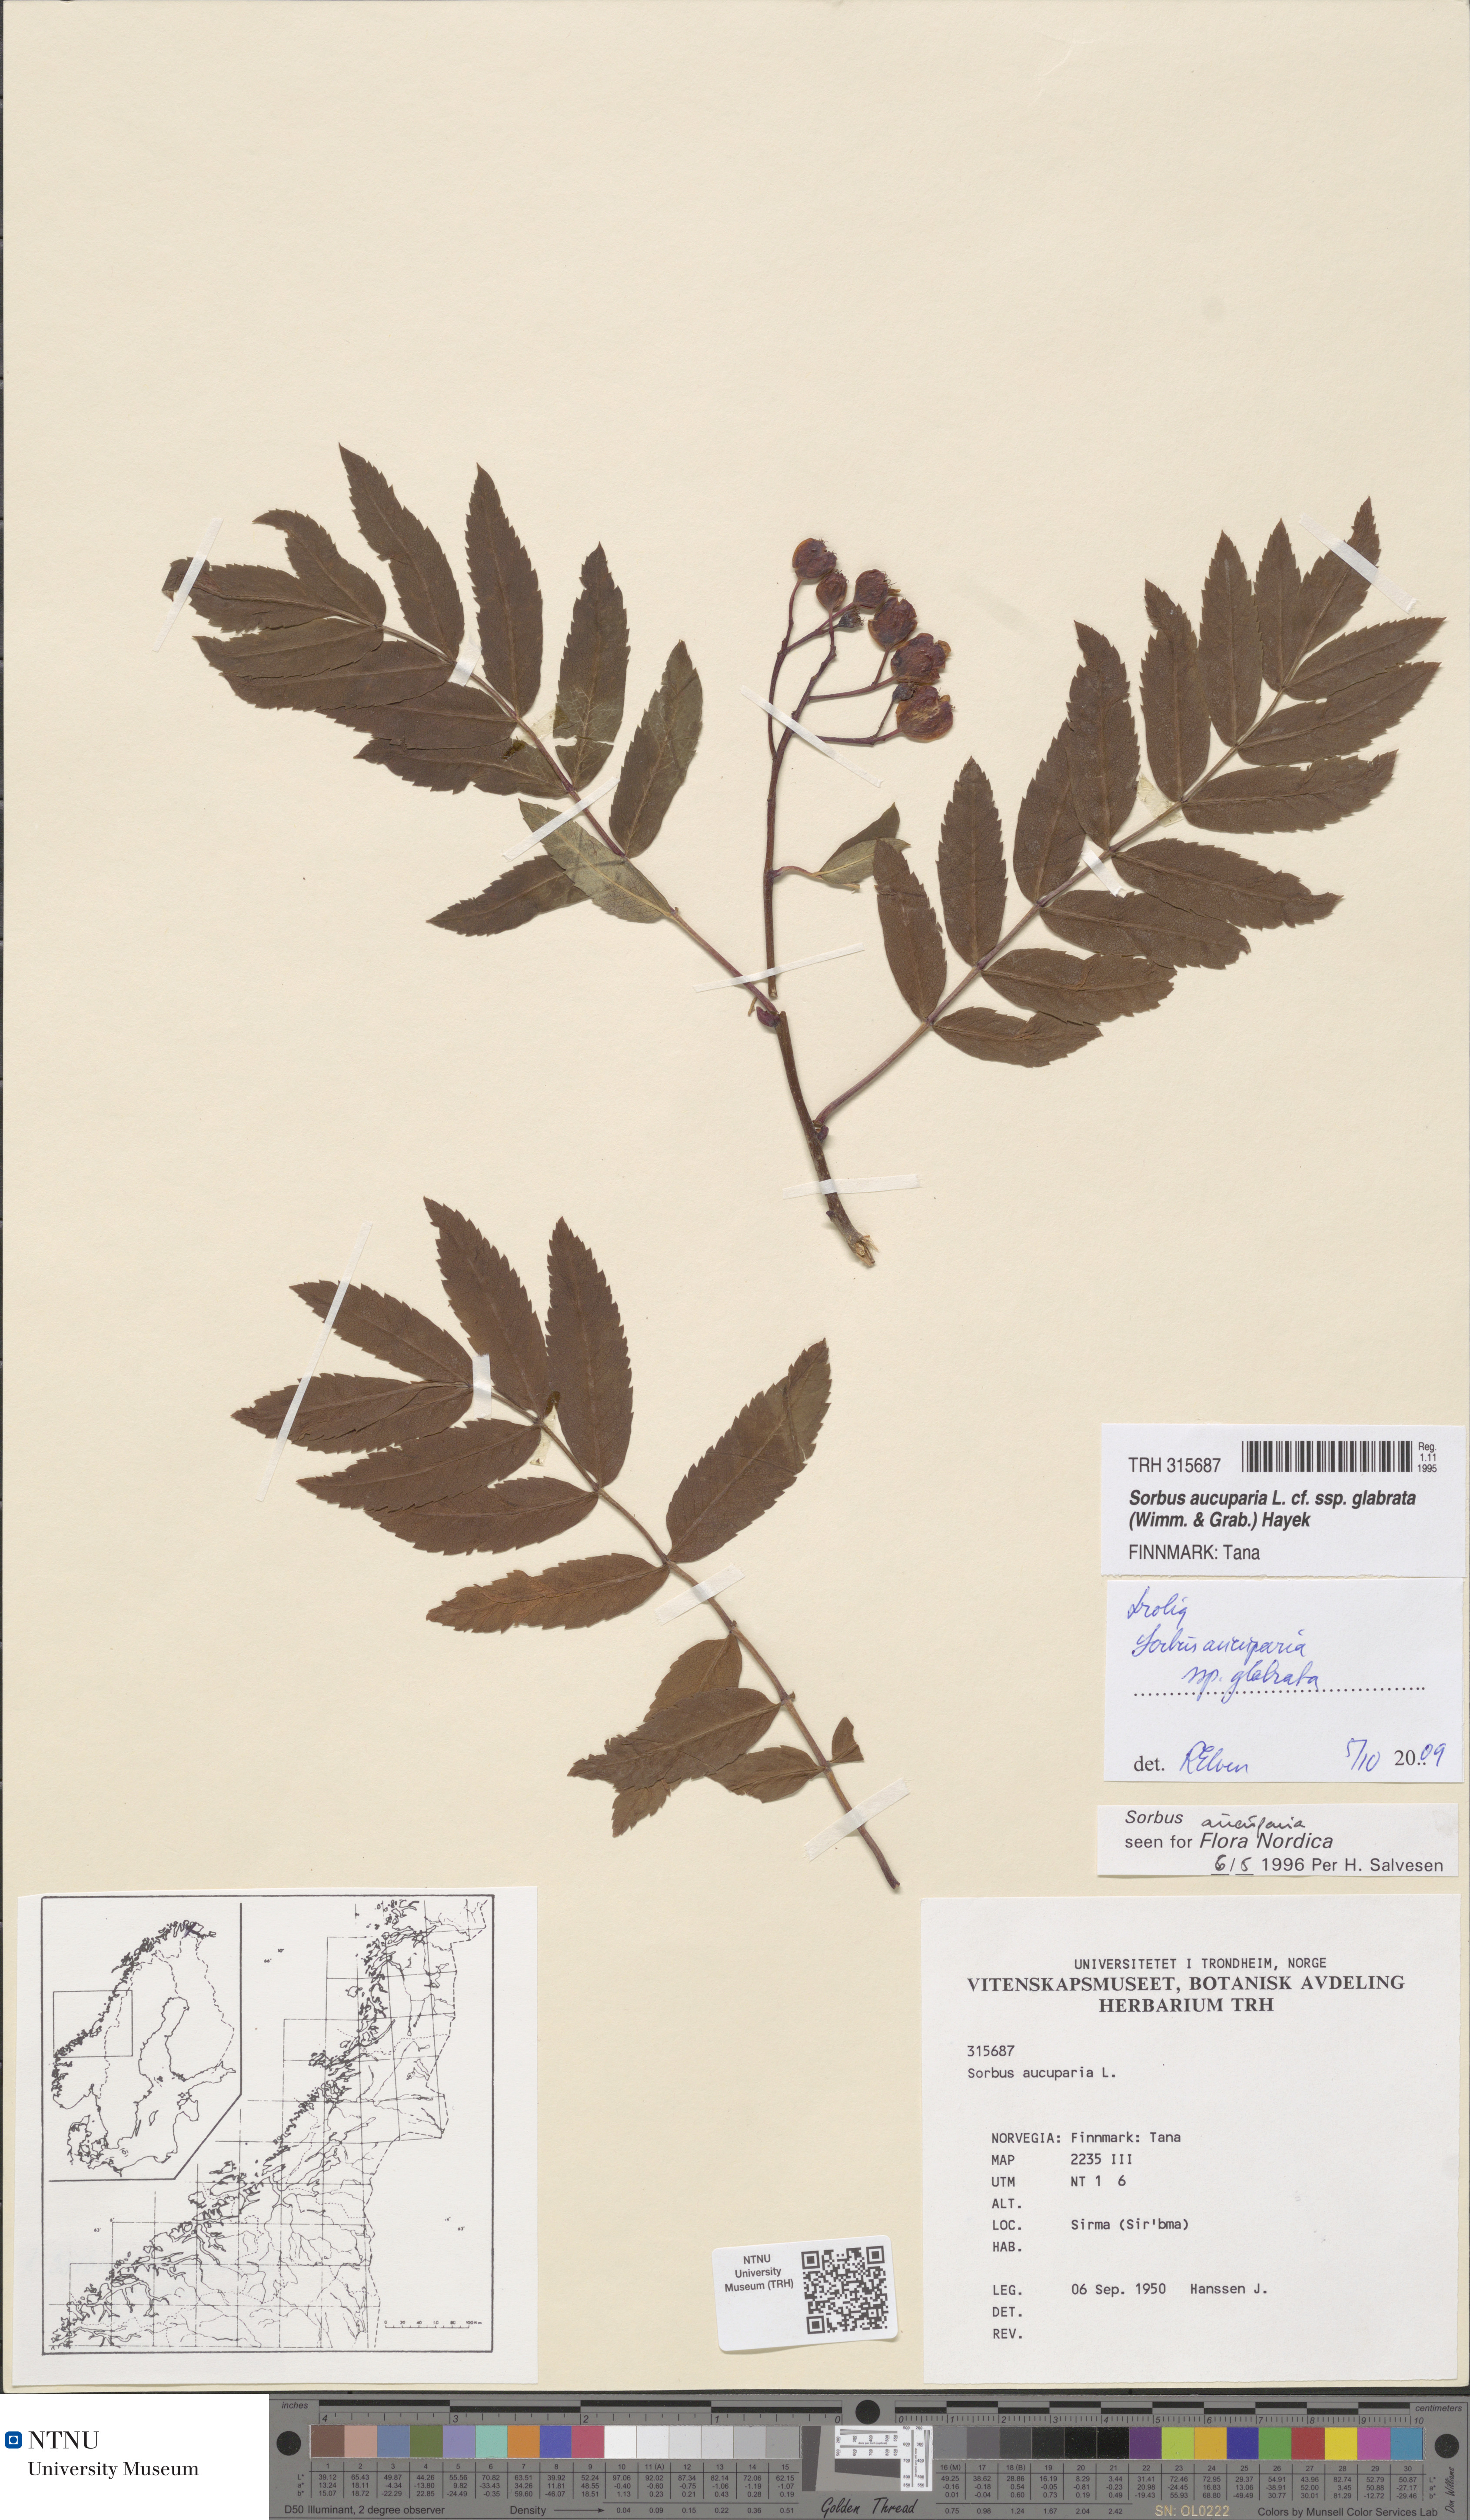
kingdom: Plantae
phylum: Tracheophyta
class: Magnoliopsida
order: Rosales
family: Rosaceae
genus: Sorbus
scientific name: Sorbus aucuparia
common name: Rowan
